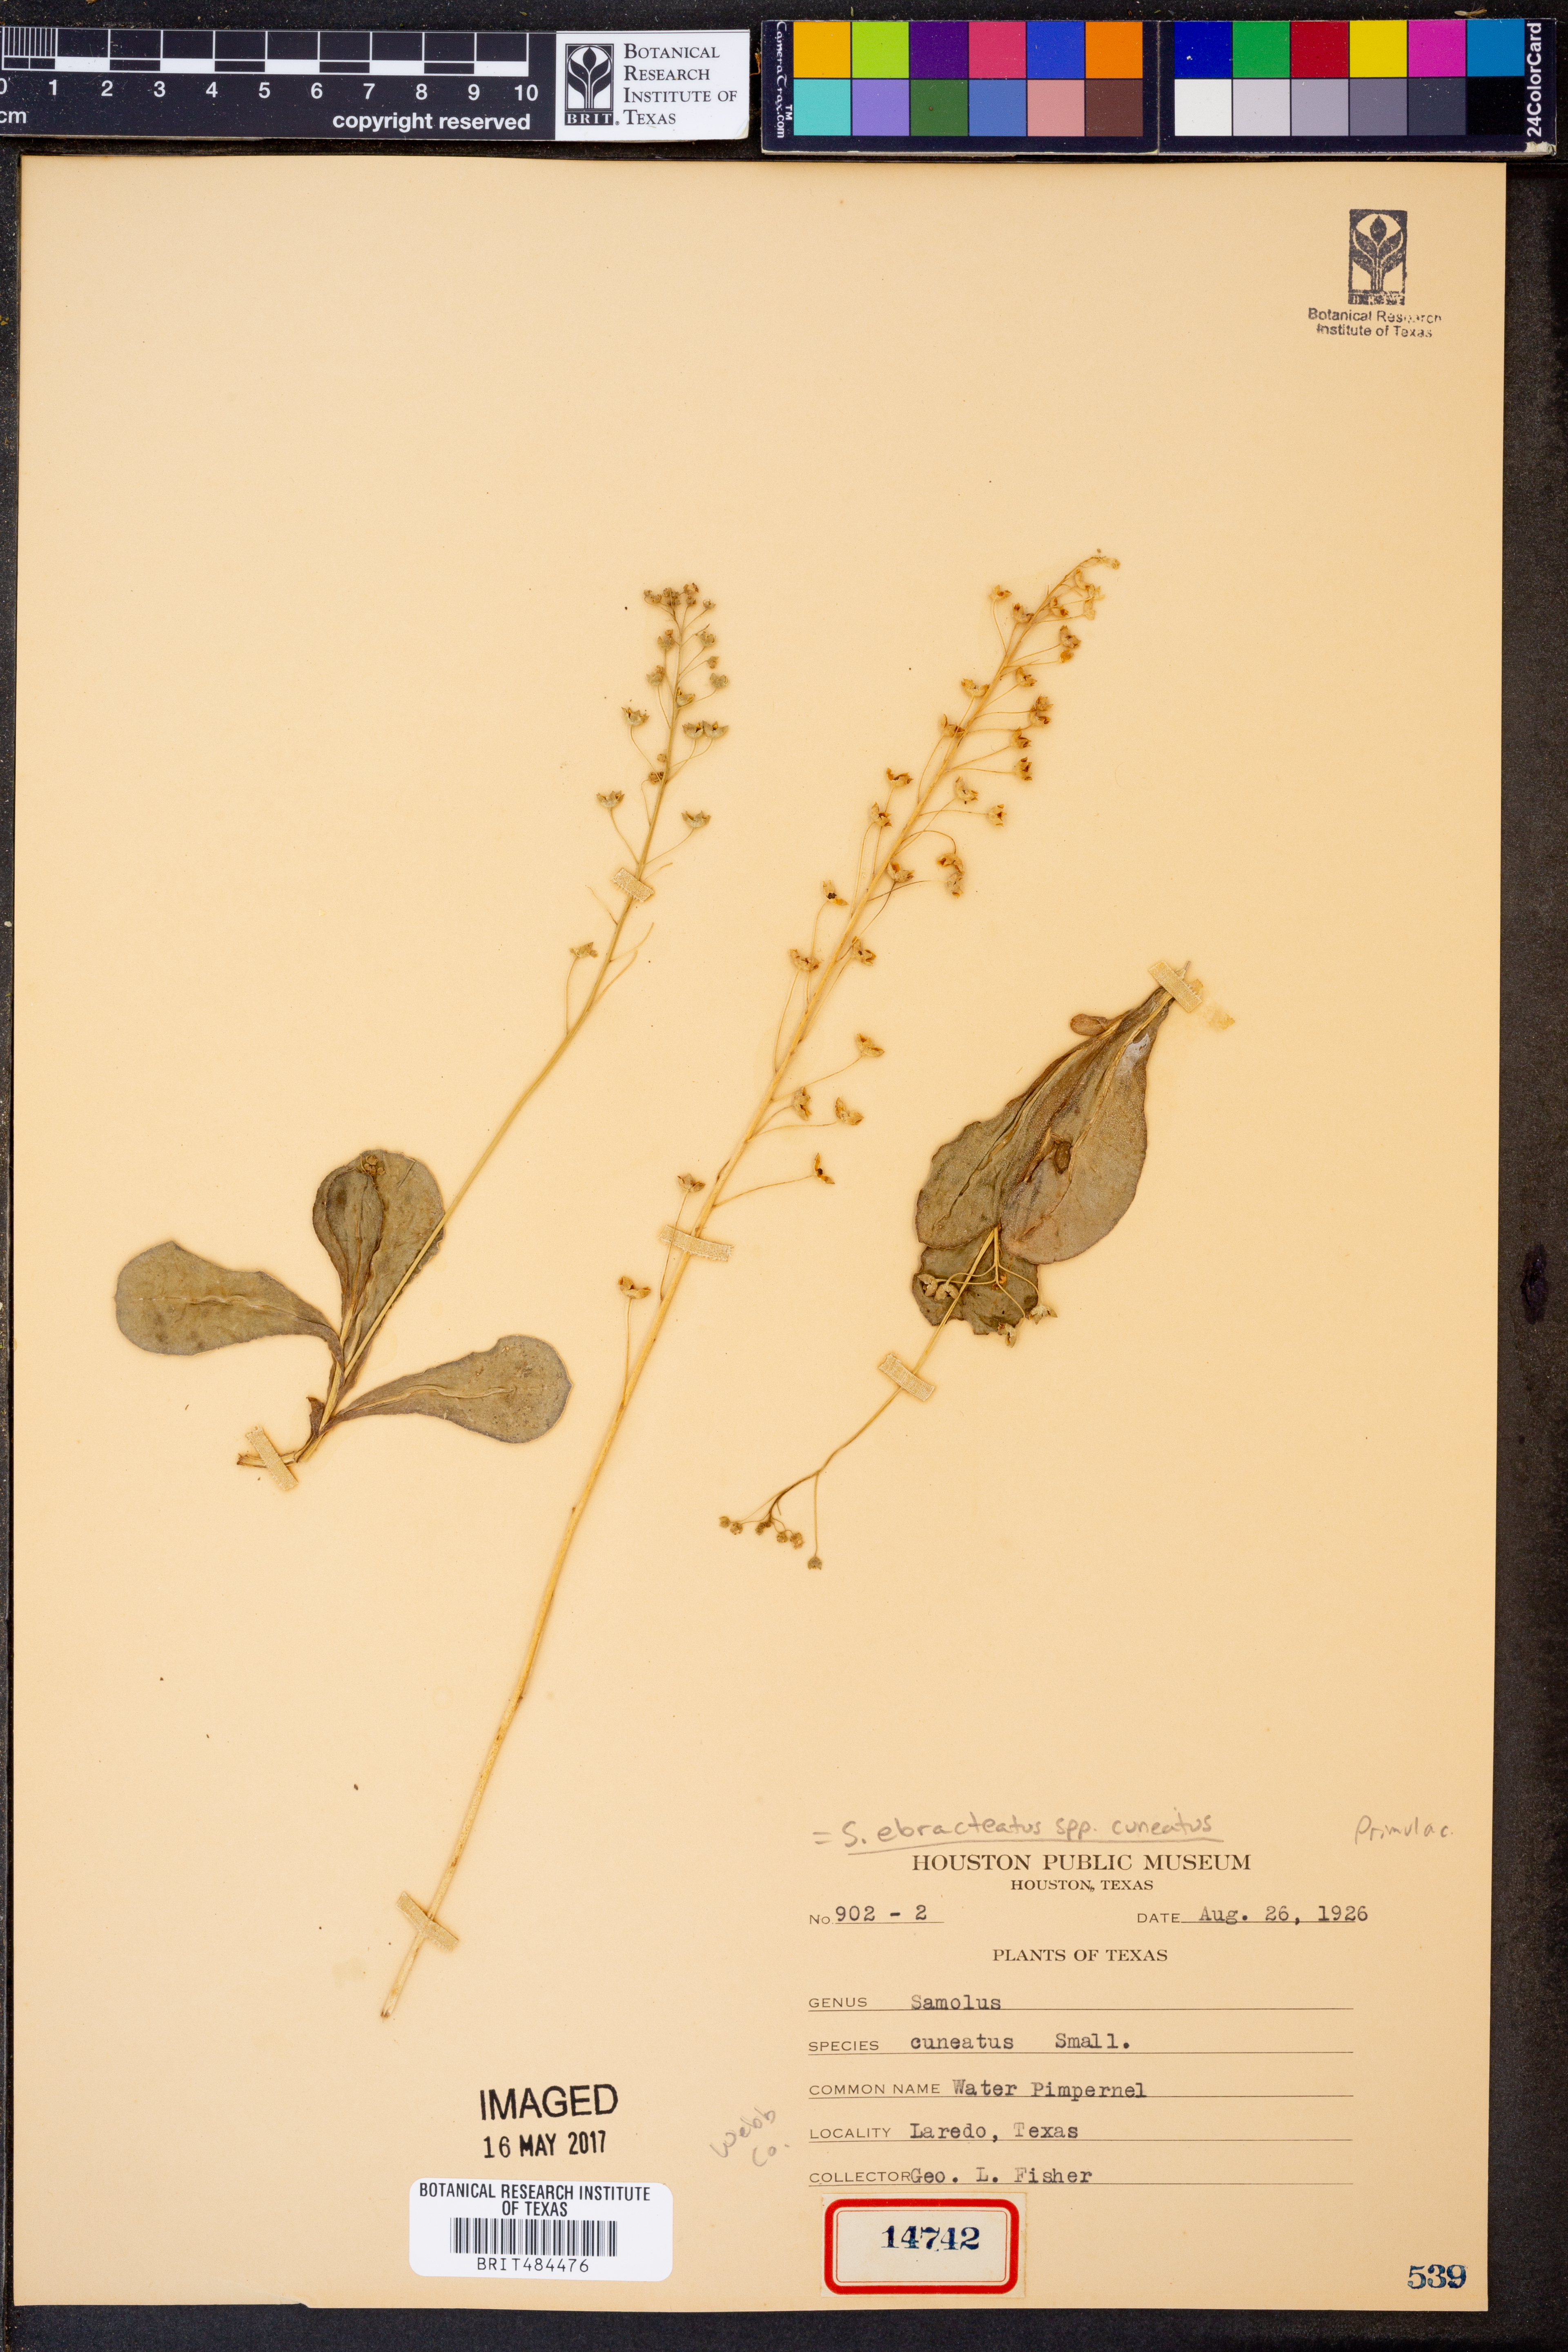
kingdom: Plantae
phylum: Tracheophyta
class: Magnoliopsida
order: Ericales
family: Primulaceae
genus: Samolus
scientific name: Samolus ebracteatus
